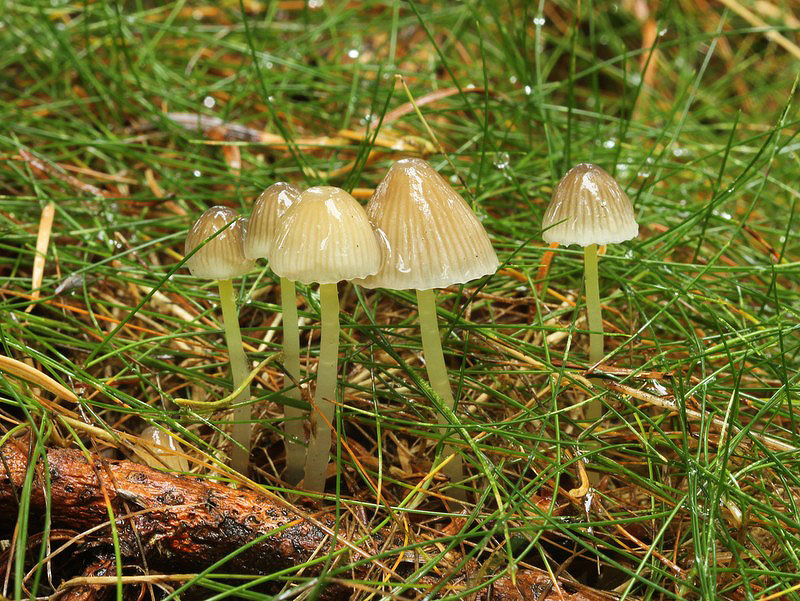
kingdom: Fungi
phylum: Basidiomycota
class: Agaricomycetes
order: Agaricales
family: Mycenaceae
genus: Mycena
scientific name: Mycena epipterygia
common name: gulstokket huesvamp
